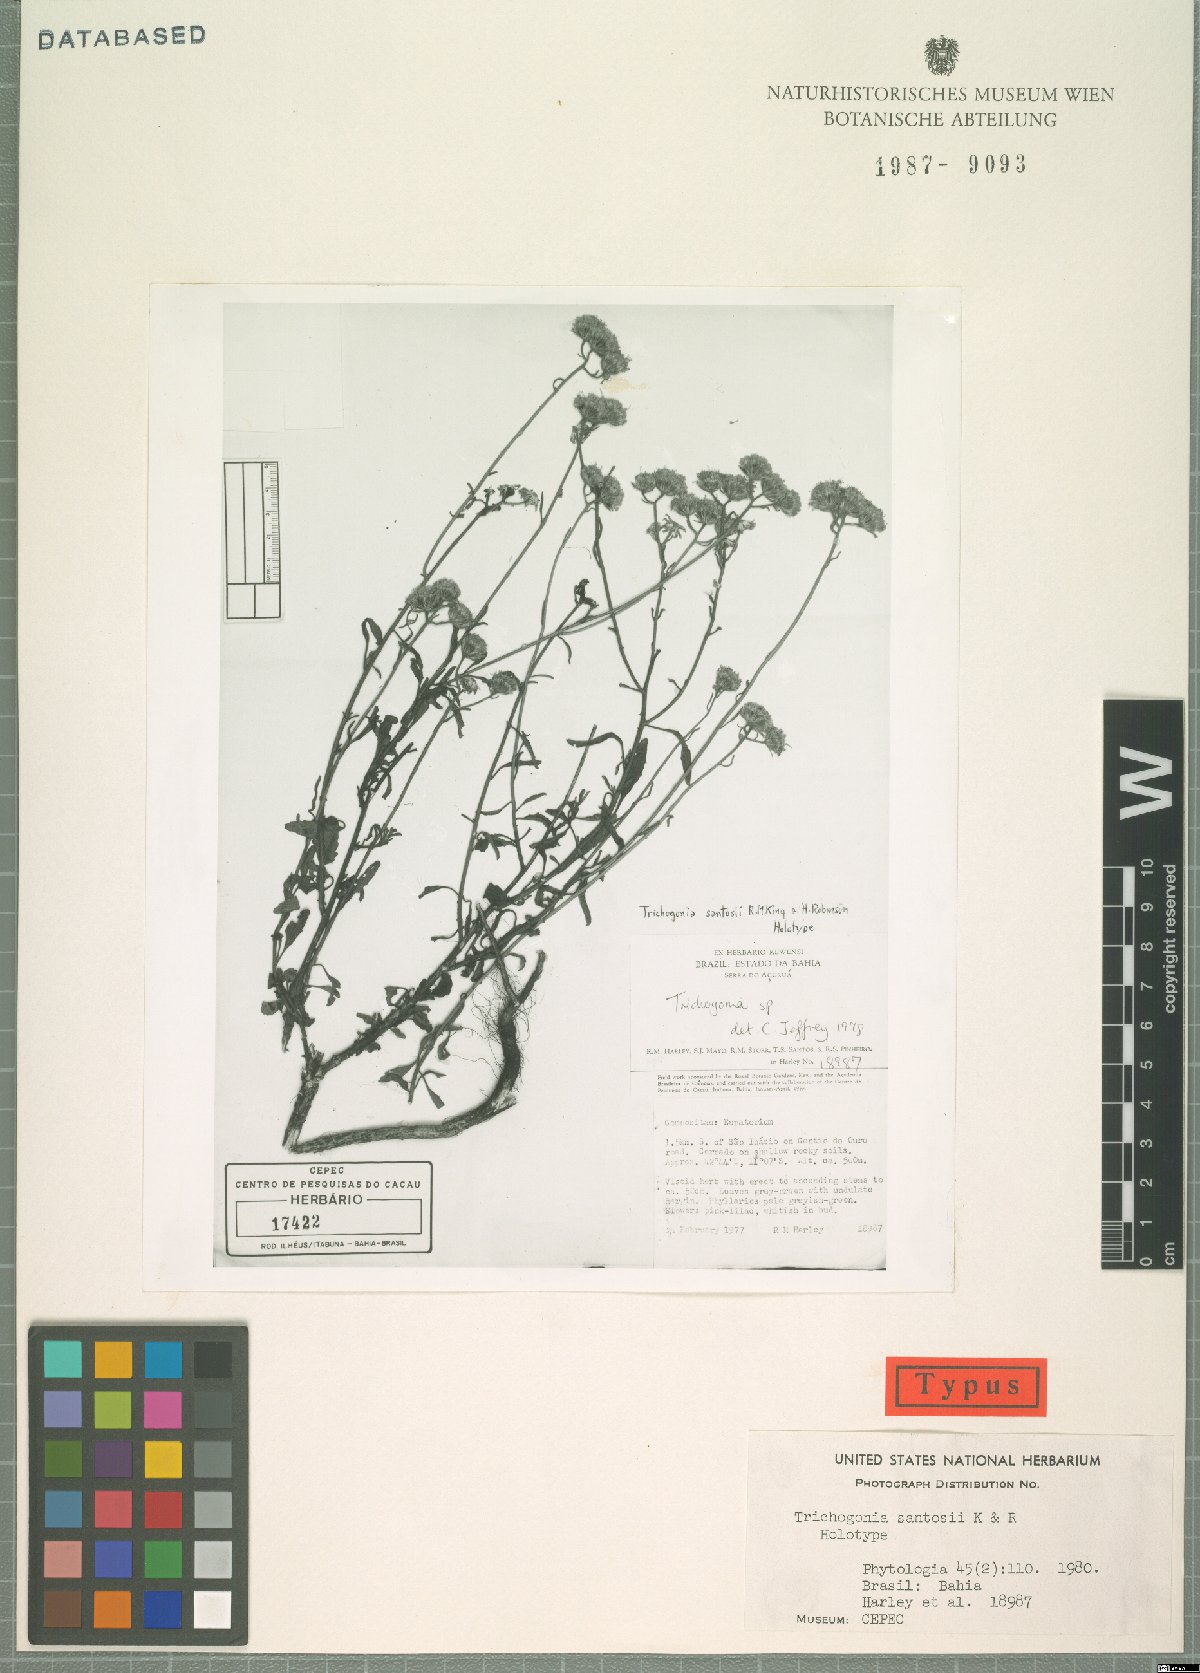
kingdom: Plantae
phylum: Tracheophyta
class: Magnoliopsida
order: Asterales
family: Asteraceae
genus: Trichogonia
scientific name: Trichogonia santosii
